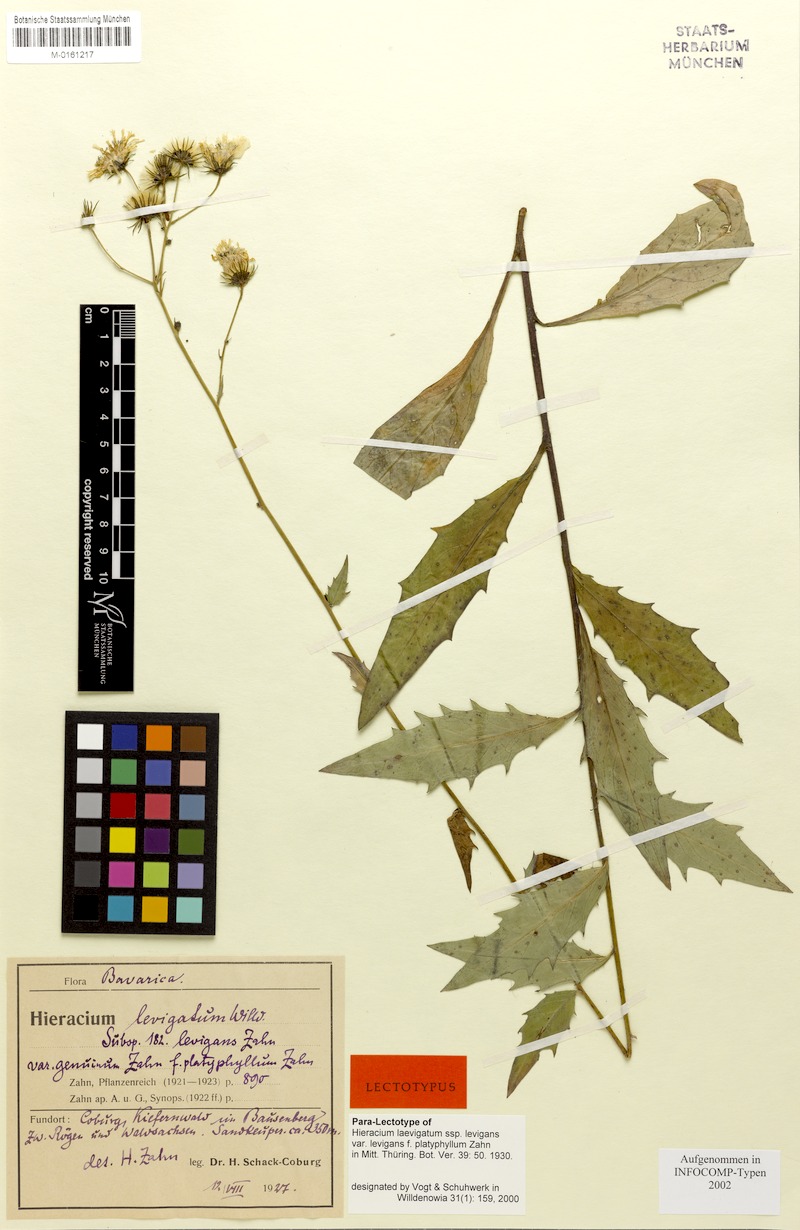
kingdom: Plantae
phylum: Tracheophyta
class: Magnoliopsida
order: Asterales
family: Asteraceae
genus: Hieracium
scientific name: Hieracium laevigatum
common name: Smooth hawkweed
